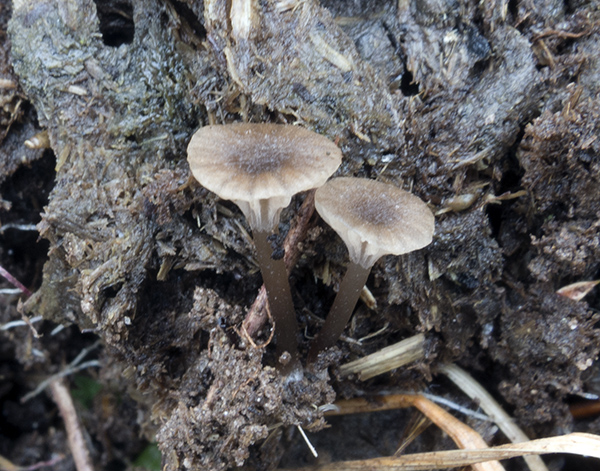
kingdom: Fungi
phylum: Basidiomycota
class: Agaricomycetes
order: Agaricales
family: Entolomataceae
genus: Entoloma
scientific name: Entoloma graphitipes
